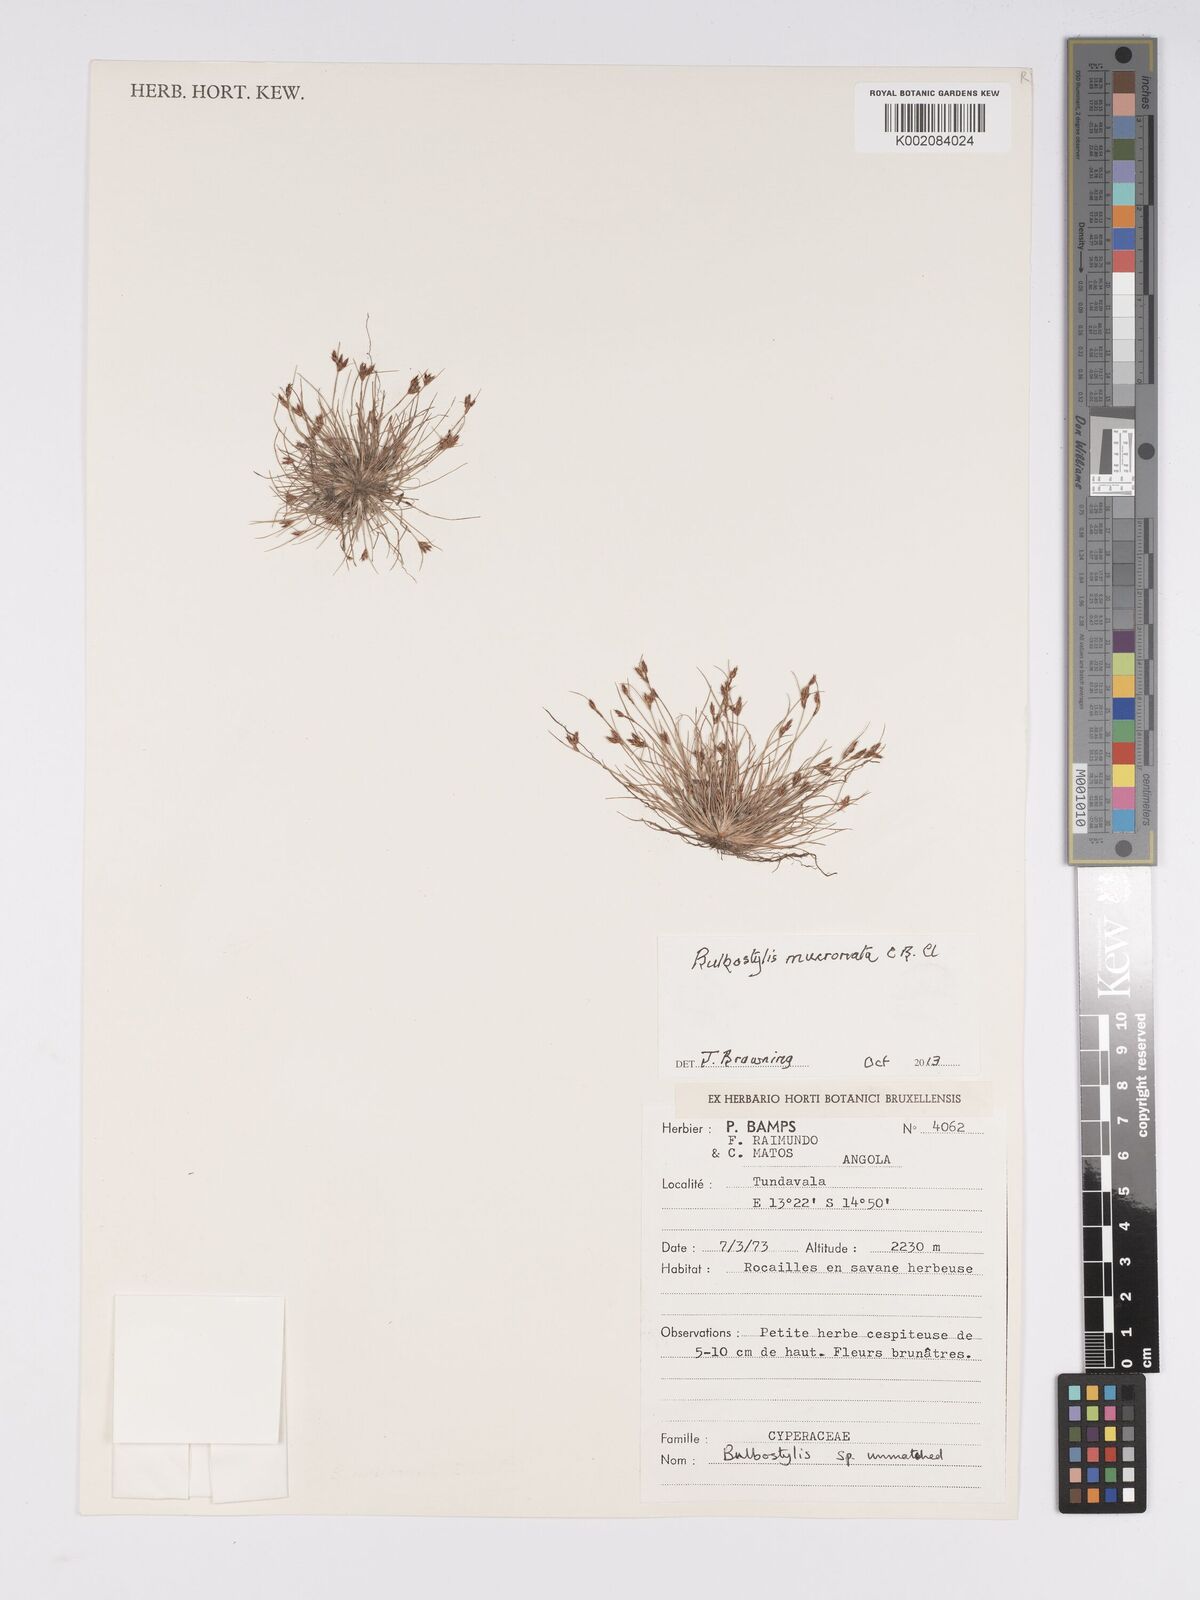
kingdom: Plantae
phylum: Tracheophyta
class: Liliopsida
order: Poales
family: Cyperaceae
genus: Bulbostylis
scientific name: Bulbostylis mucronata
